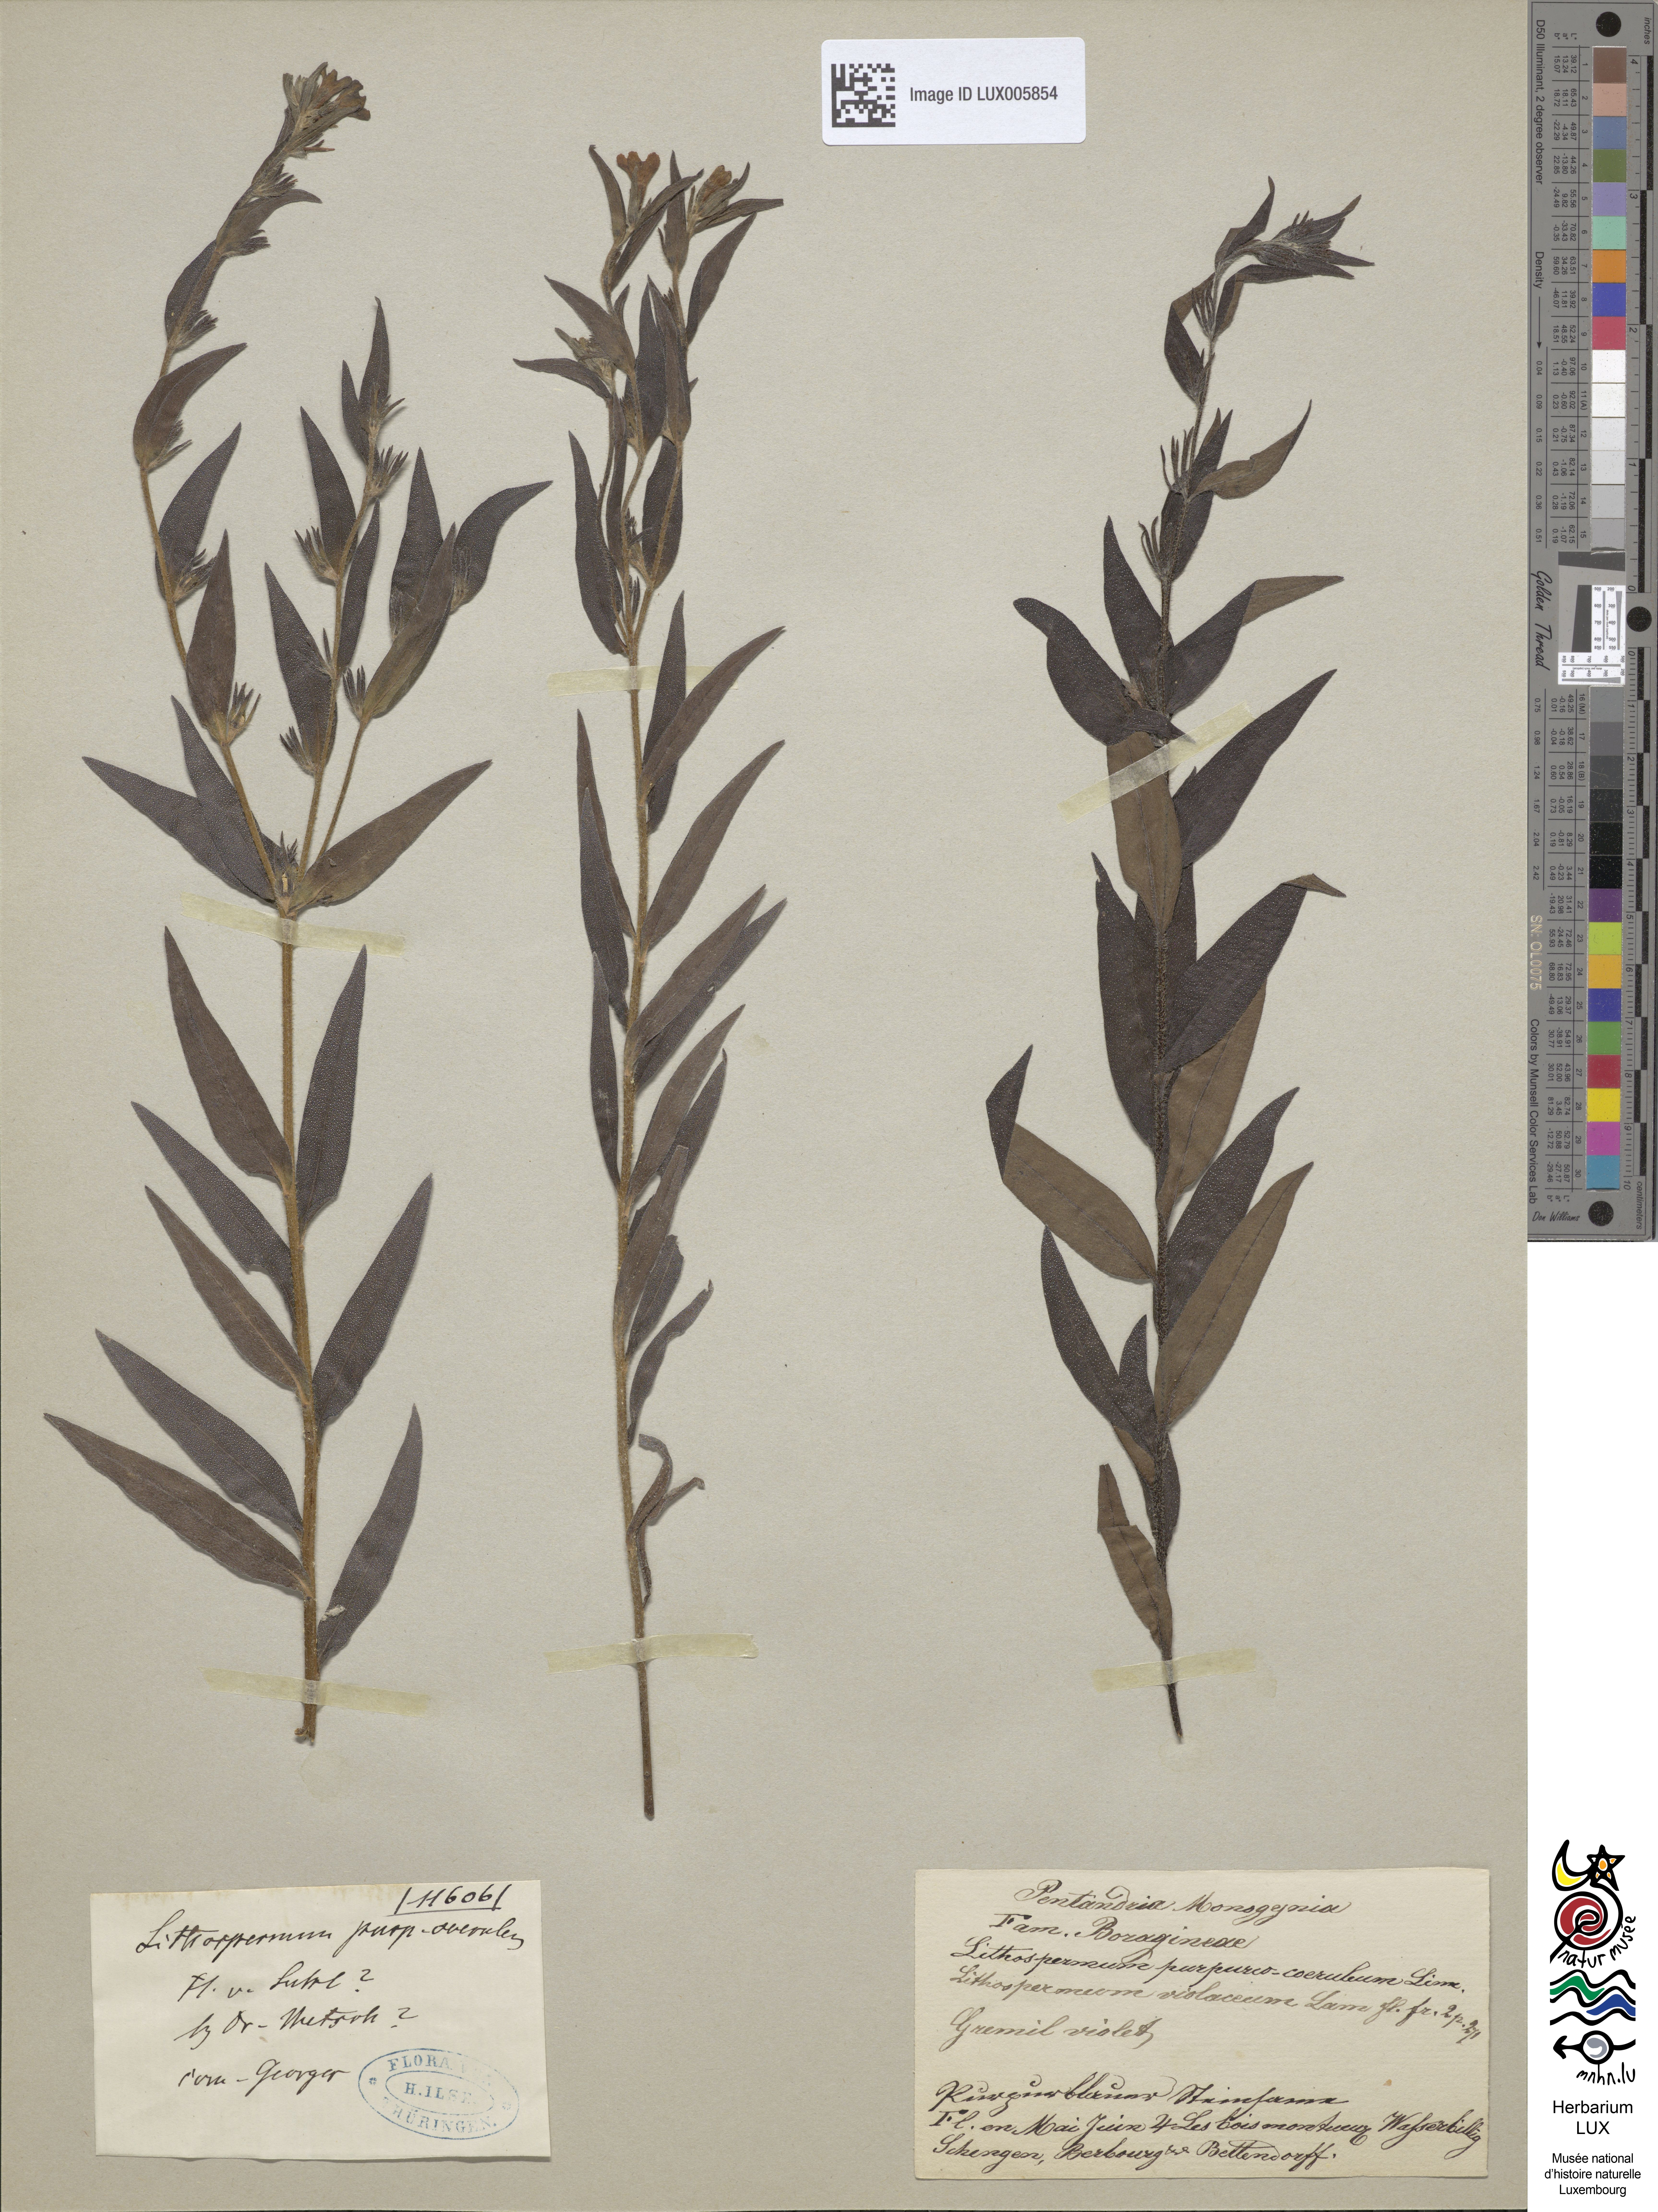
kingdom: Plantae
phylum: Tracheophyta
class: Magnoliopsida
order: Boraginales
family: Boraginaceae
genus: Aegonychon
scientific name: Aegonychon purpurocaeruleum
